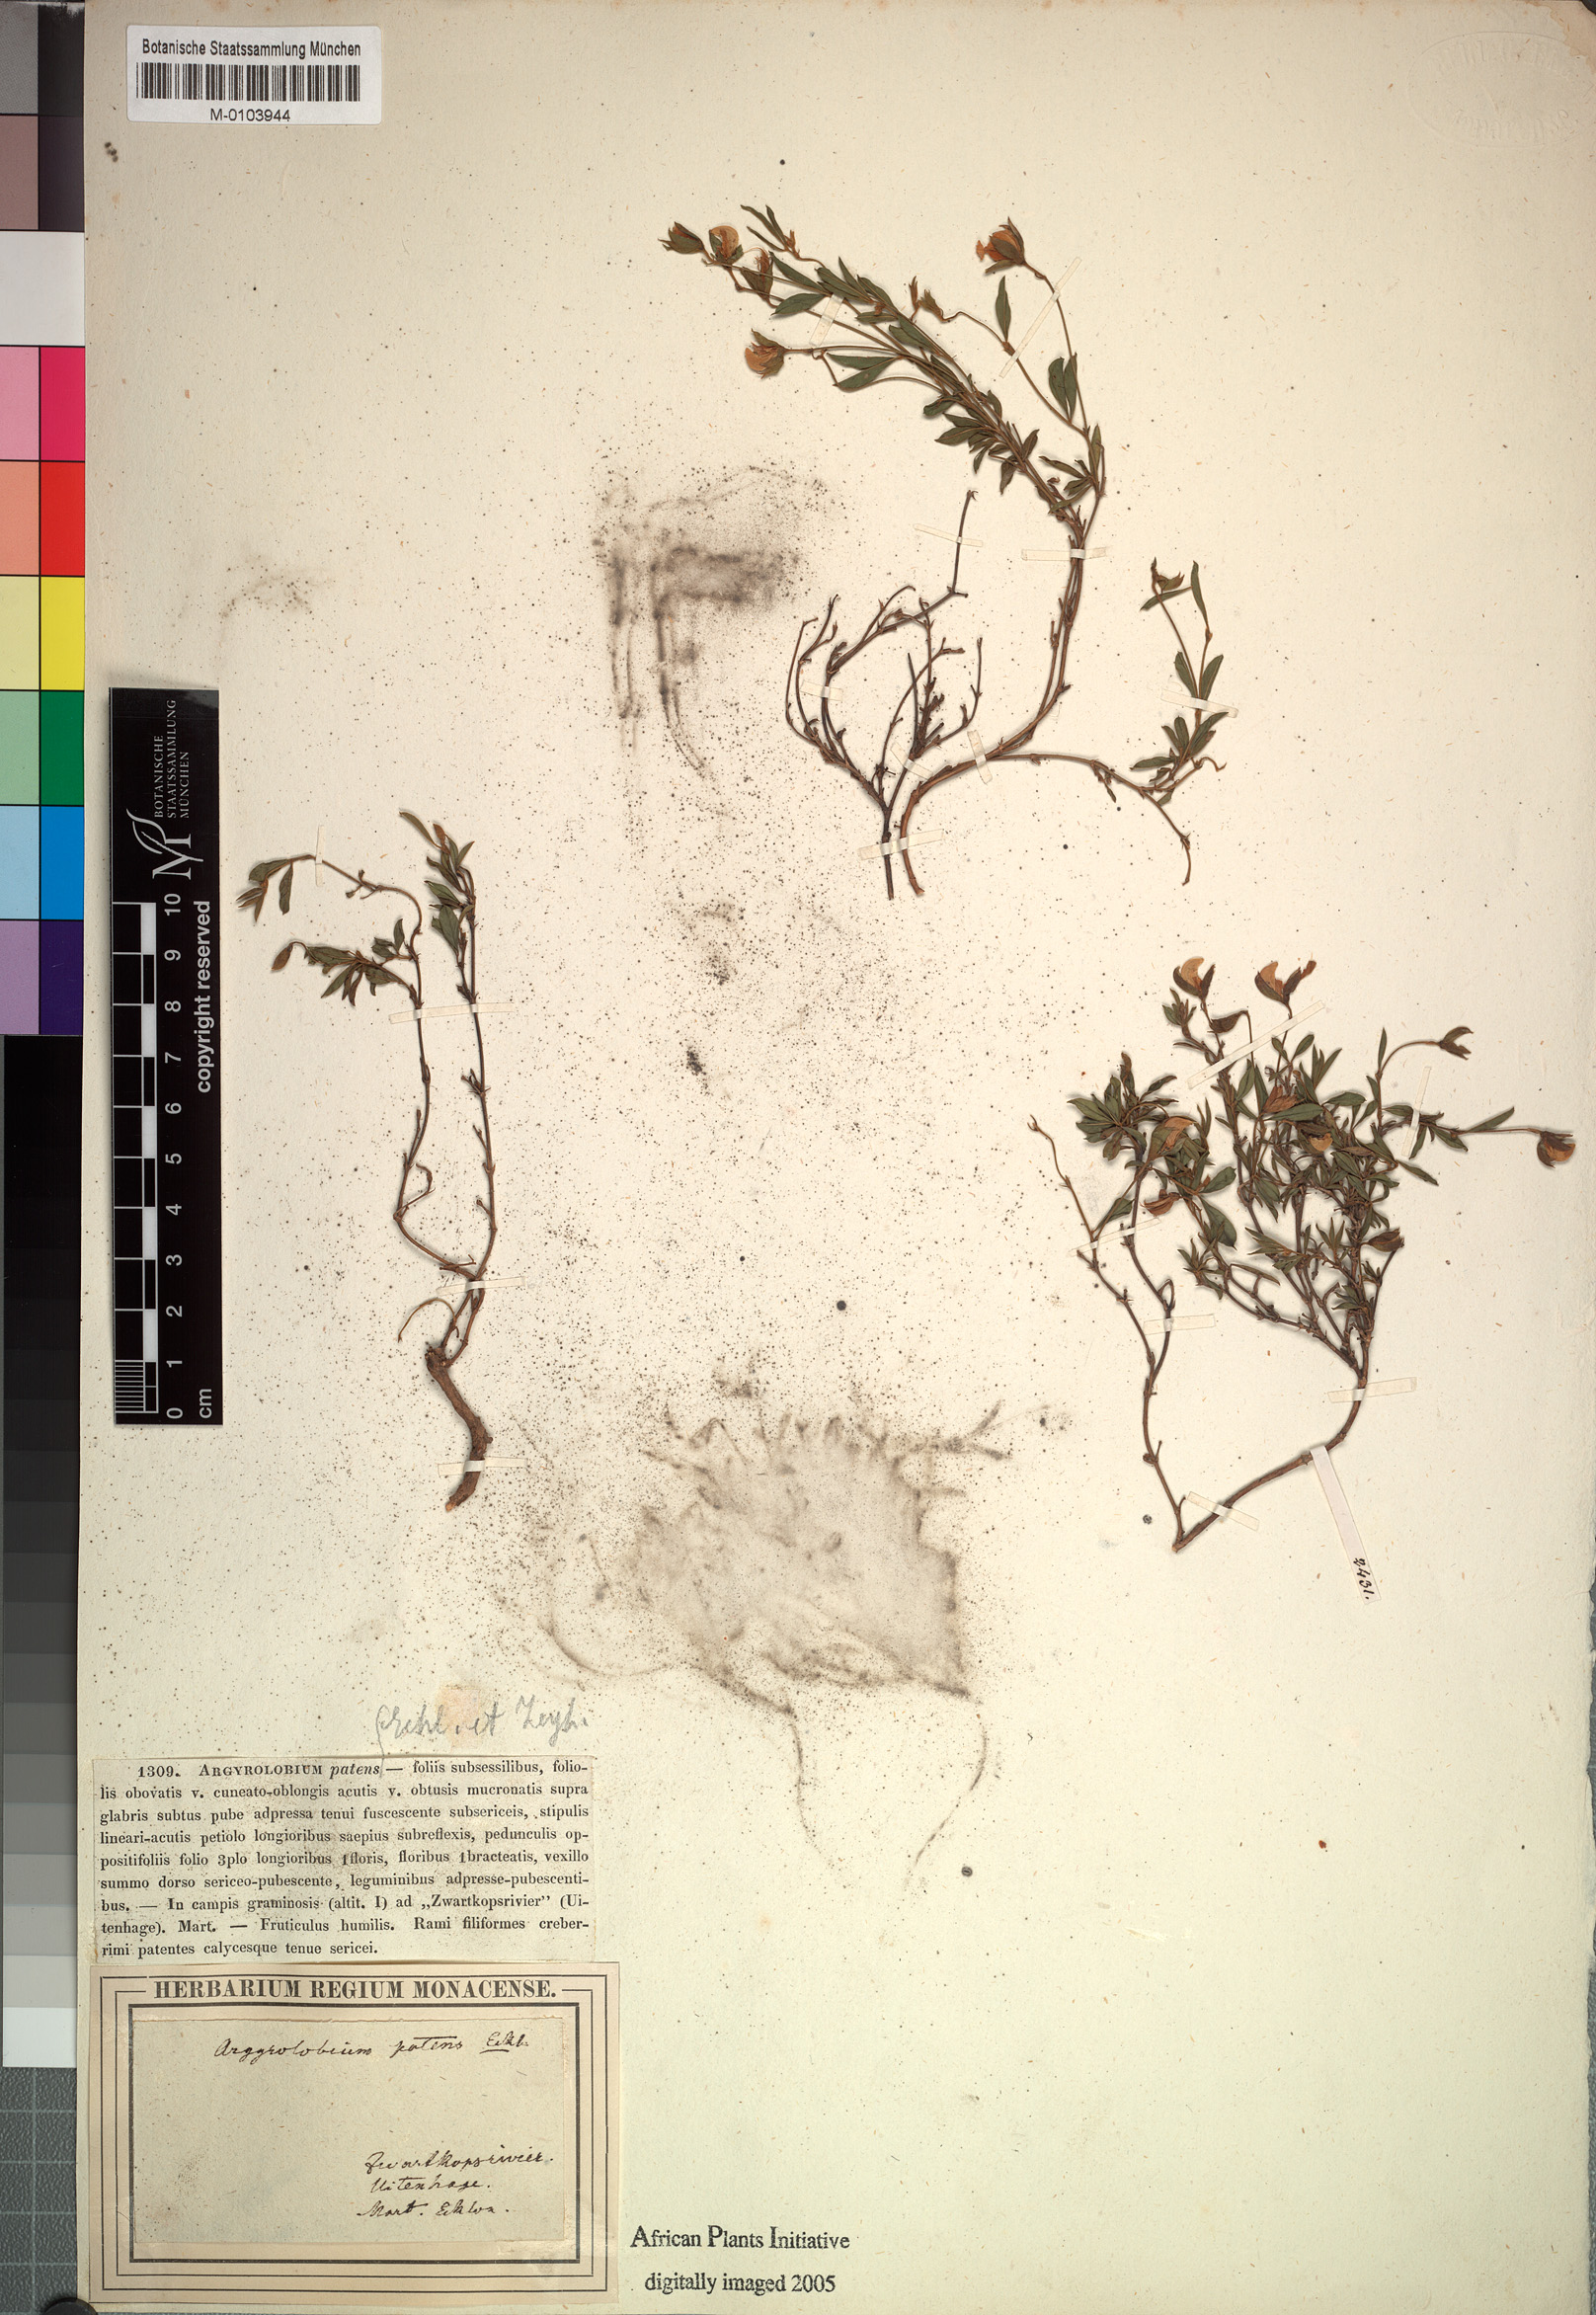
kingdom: Plantae
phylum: Tracheophyta
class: Magnoliopsida
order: Fabales
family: Fabaceae
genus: Argyrolobium
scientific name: Argyrolobium molle
